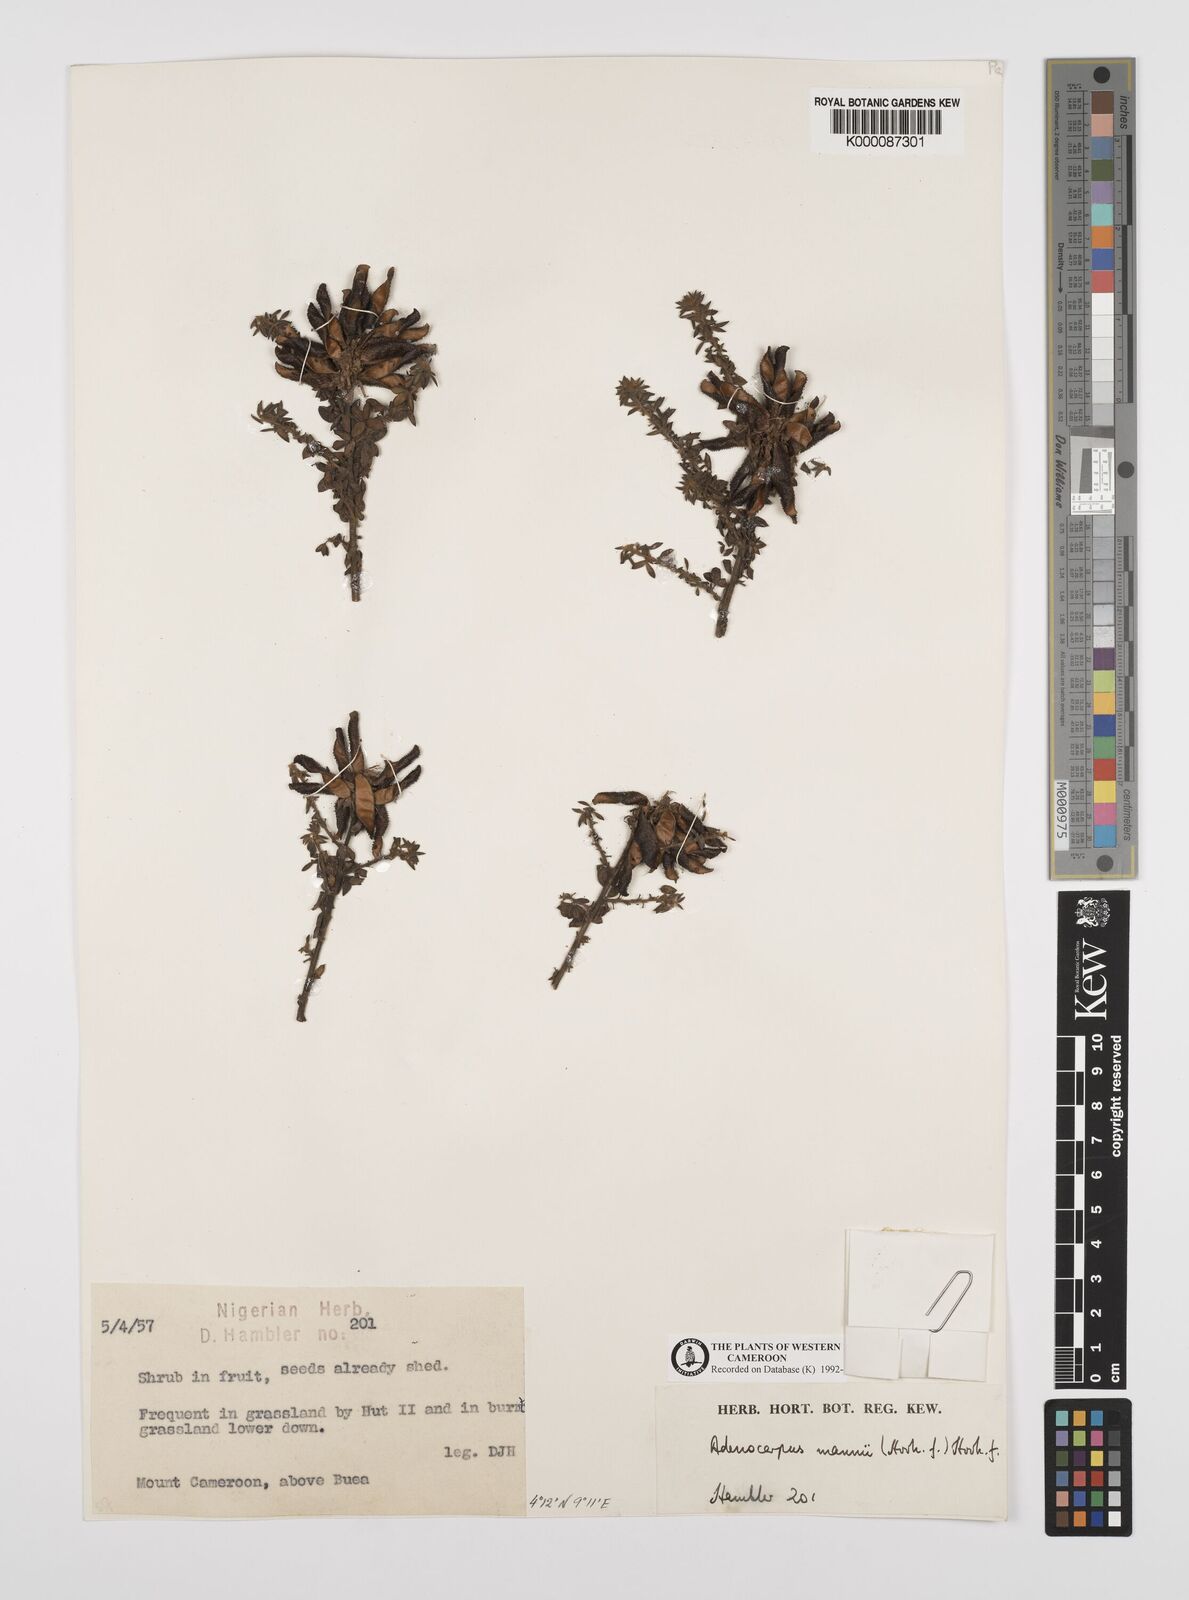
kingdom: Plantae
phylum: Tracheophyta
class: Magnoliopsida
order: Fabales
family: Fabaceae
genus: Adenocarpus
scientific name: Adenocarpus mannii
